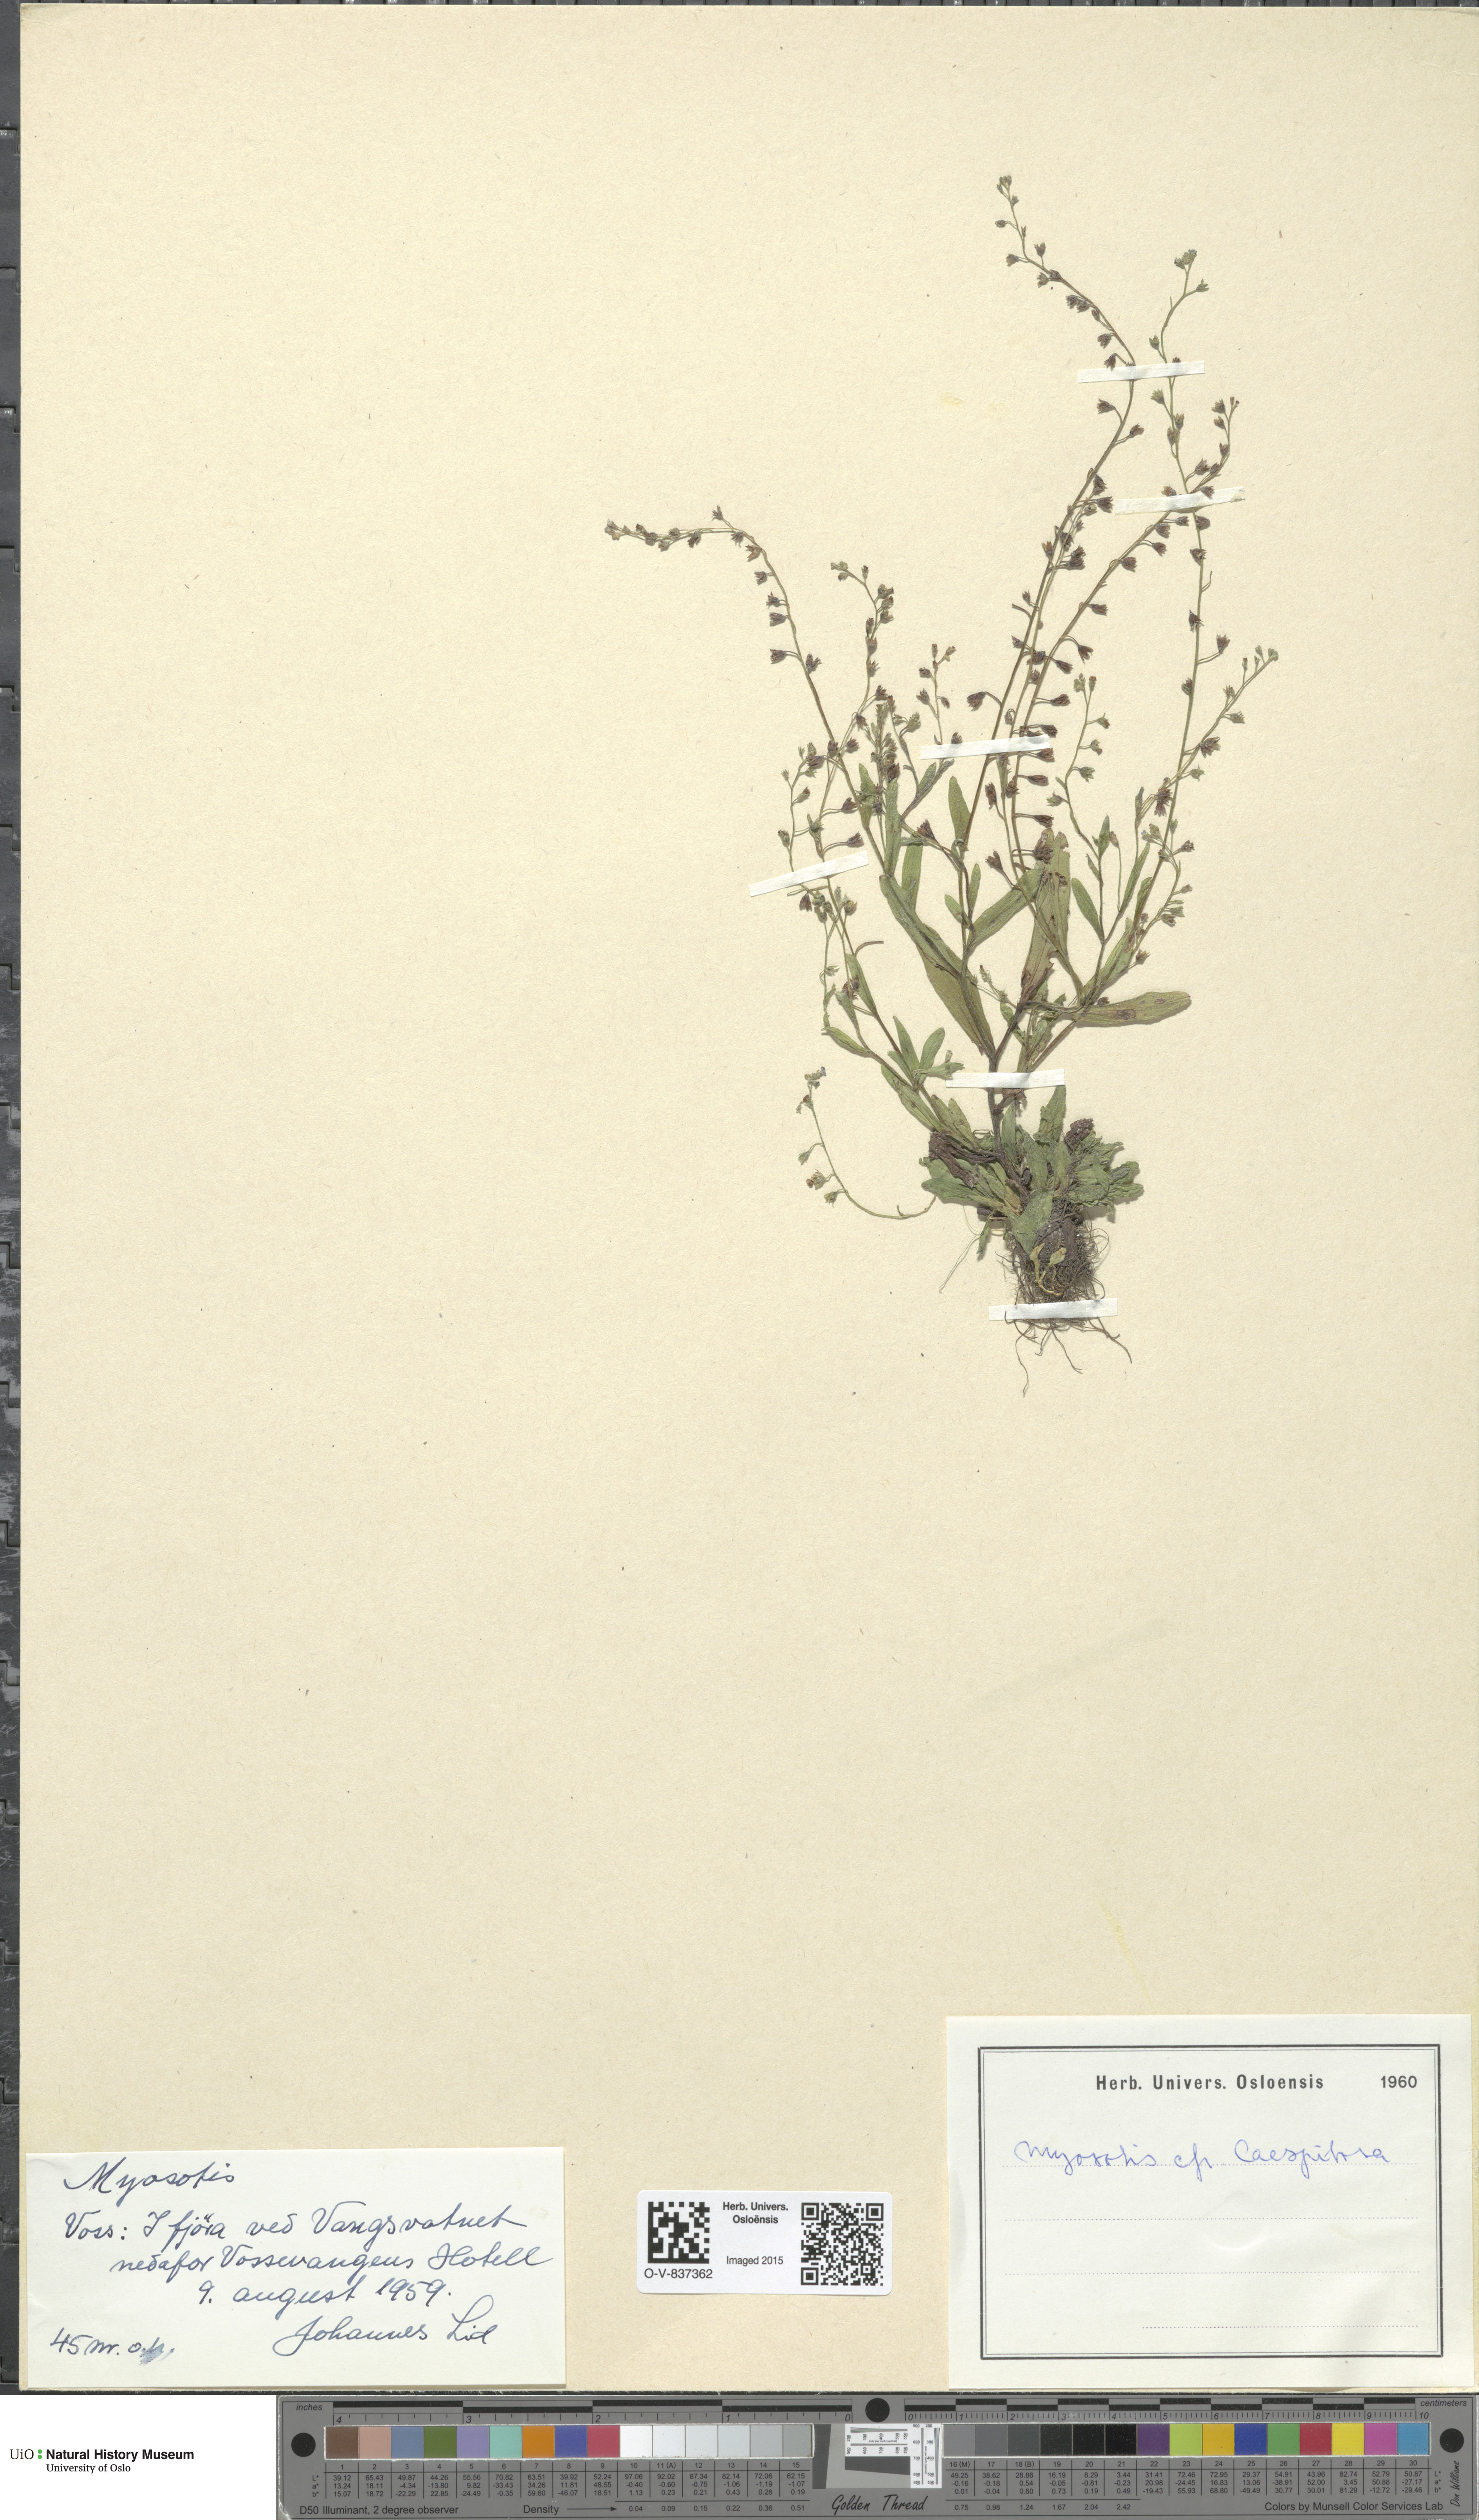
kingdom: Plantae
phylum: Tracheophyta
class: Magnoliopsida
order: Boraginales
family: Boraginaceae
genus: Myosotis
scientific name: Myosotis laxa
